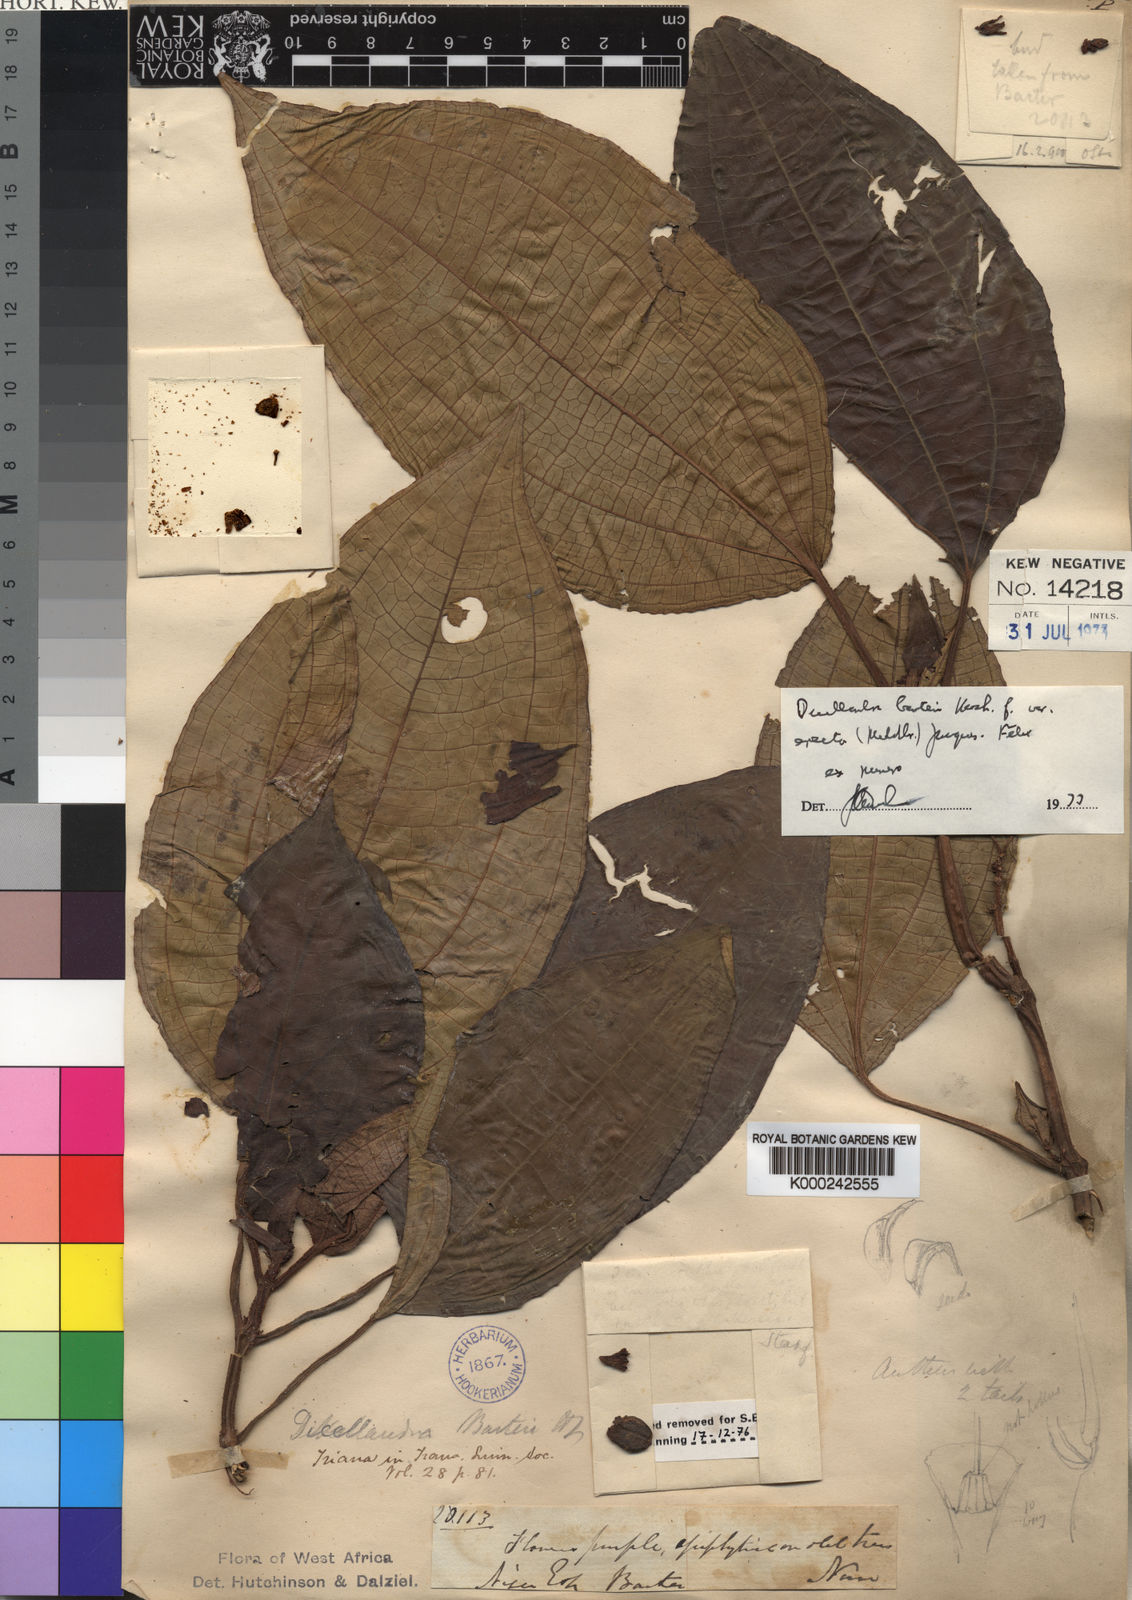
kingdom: Plantae
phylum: Tracheophyta
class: Magnoliopsida
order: Myrtales
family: Melastomataceae
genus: Dicellandra
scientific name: Dicellandra barteri
